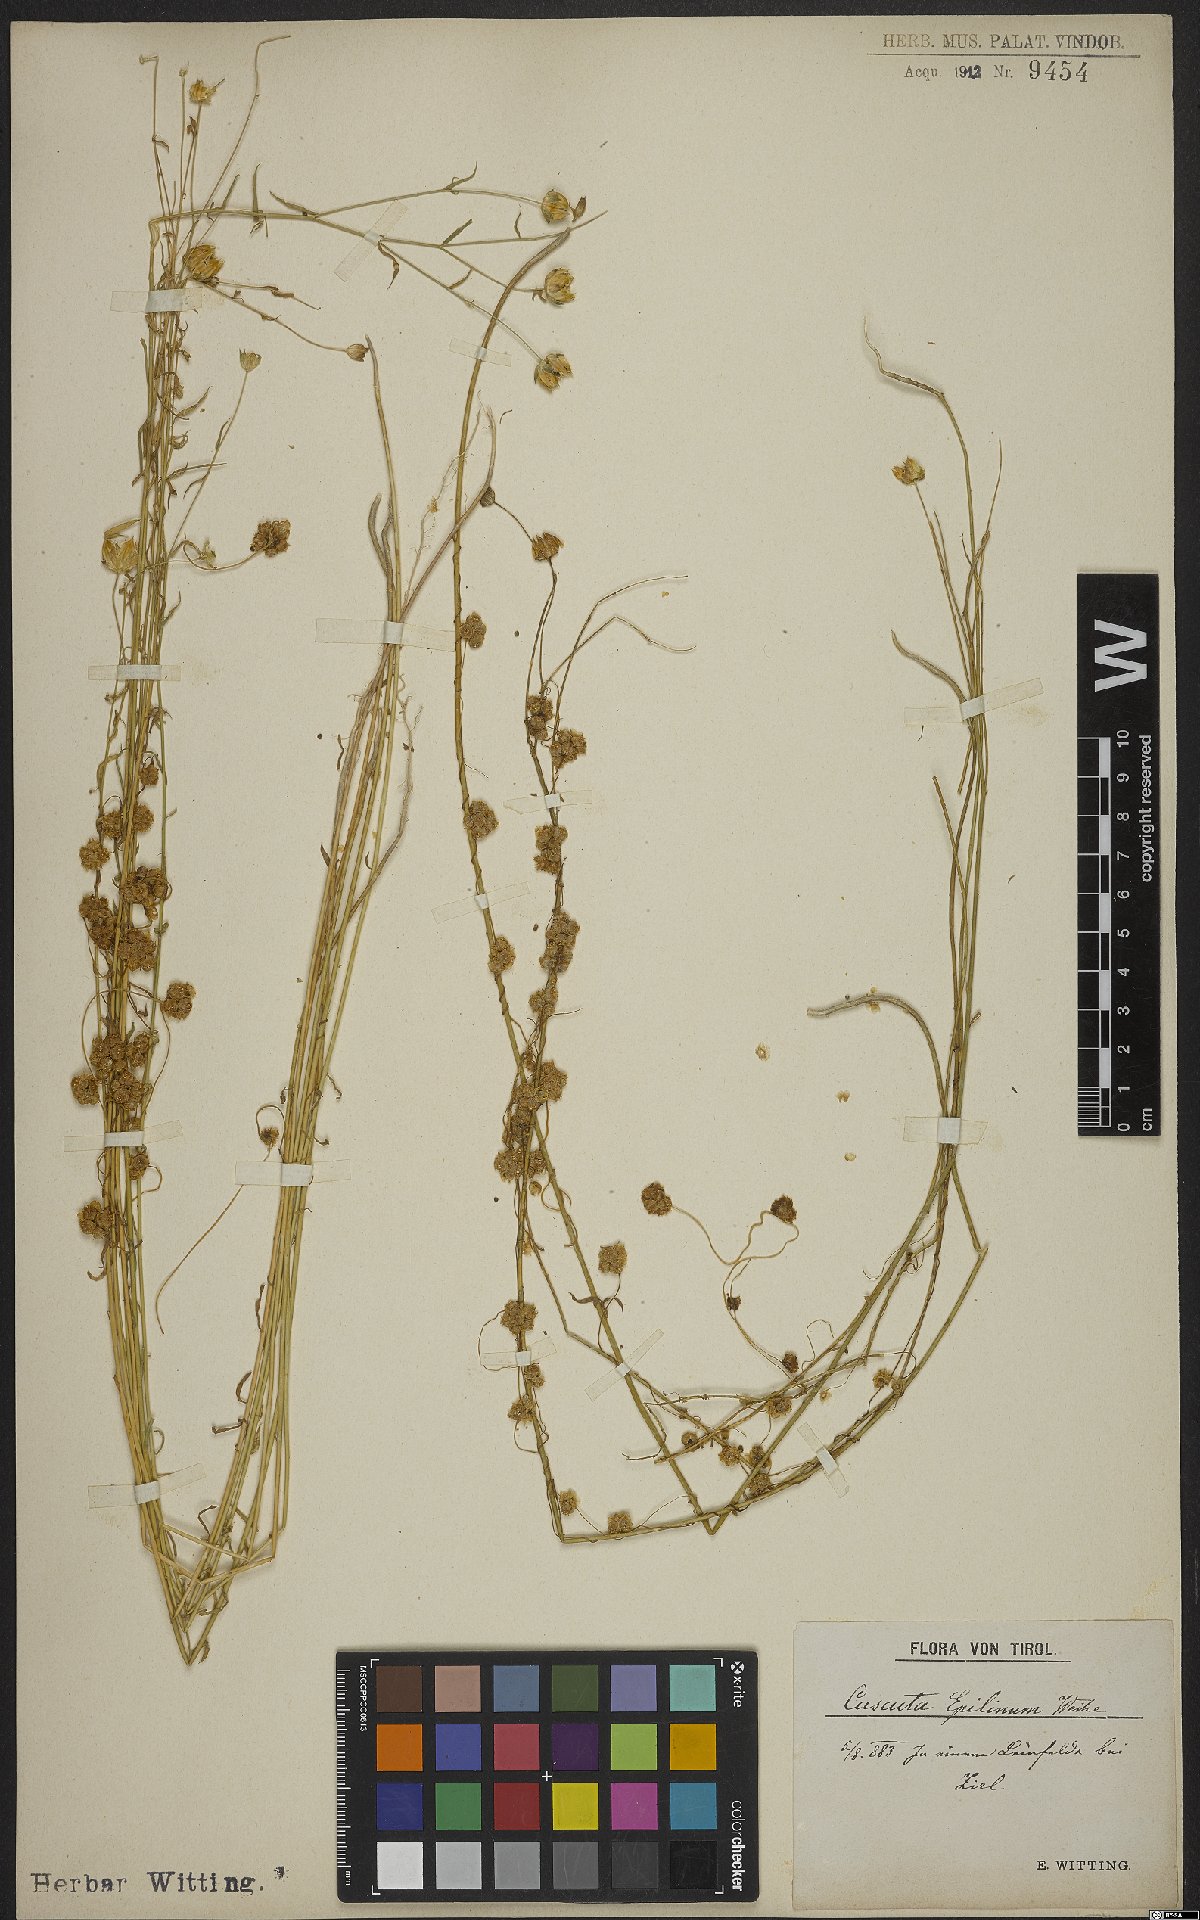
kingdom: Plantae
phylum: Tracheophyta
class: Magnoliopsida
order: Solanales
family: Convolvulaceae
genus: Cuscuta
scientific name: Cuscuta epilinum
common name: Flax dodder
